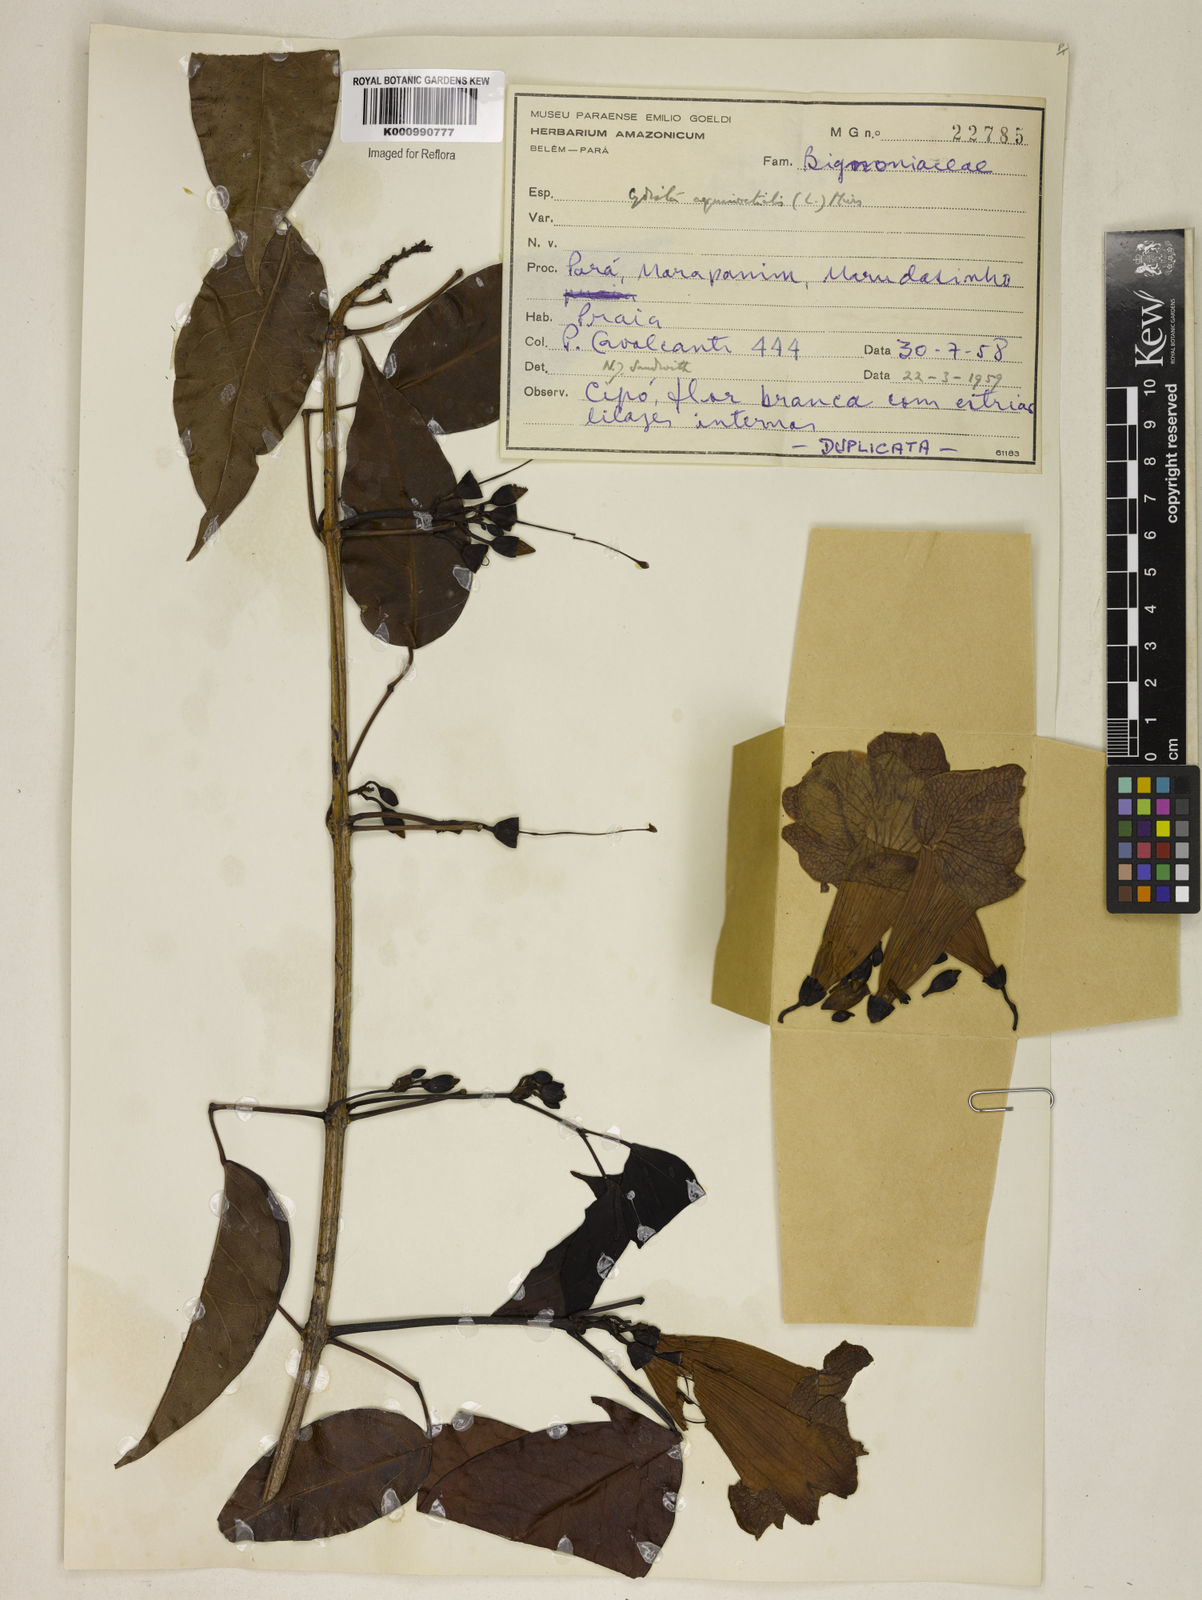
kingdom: Plantae
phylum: Tracheophyta
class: Magnoliopsida
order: Lamiales
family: Bignoniaceae
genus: Bignonia
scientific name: Bignonia aequinoctialis
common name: Garlicvine
